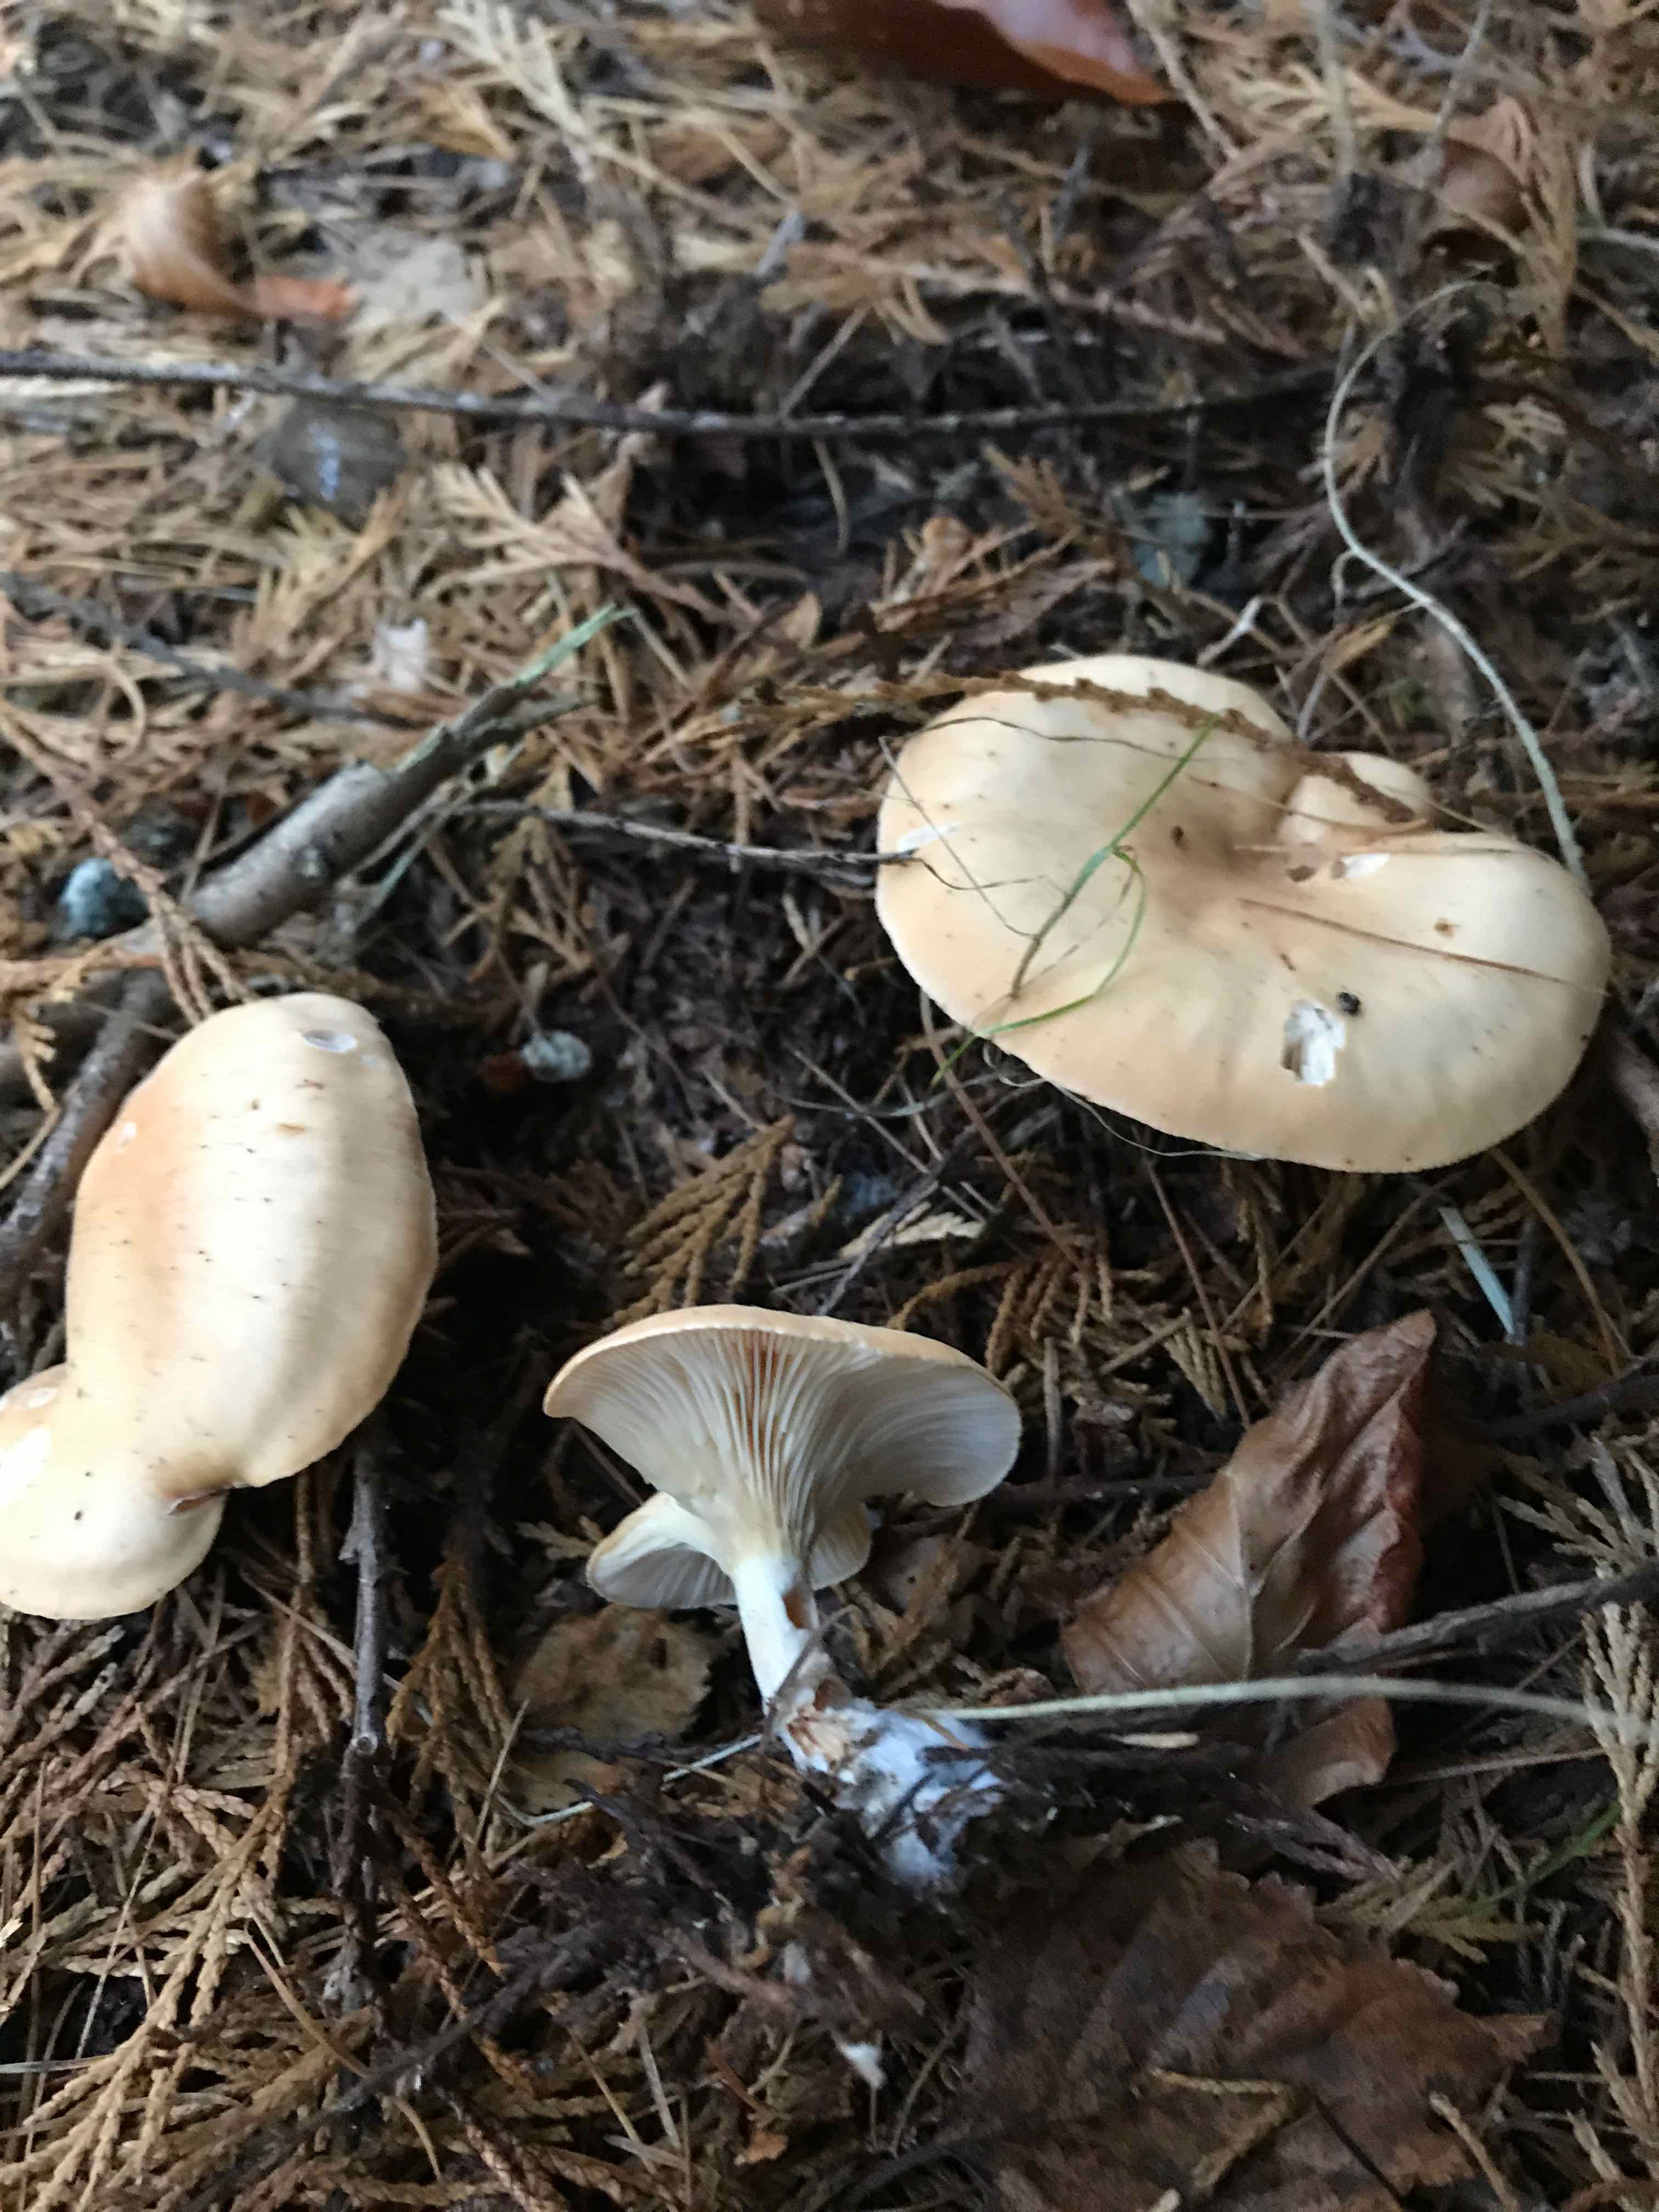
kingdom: Fungi
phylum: Basidiomycota
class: Agaricomycetes
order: Agaricales
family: Tricholomataceae
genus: Paralepista
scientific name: Paralepista flaccida
